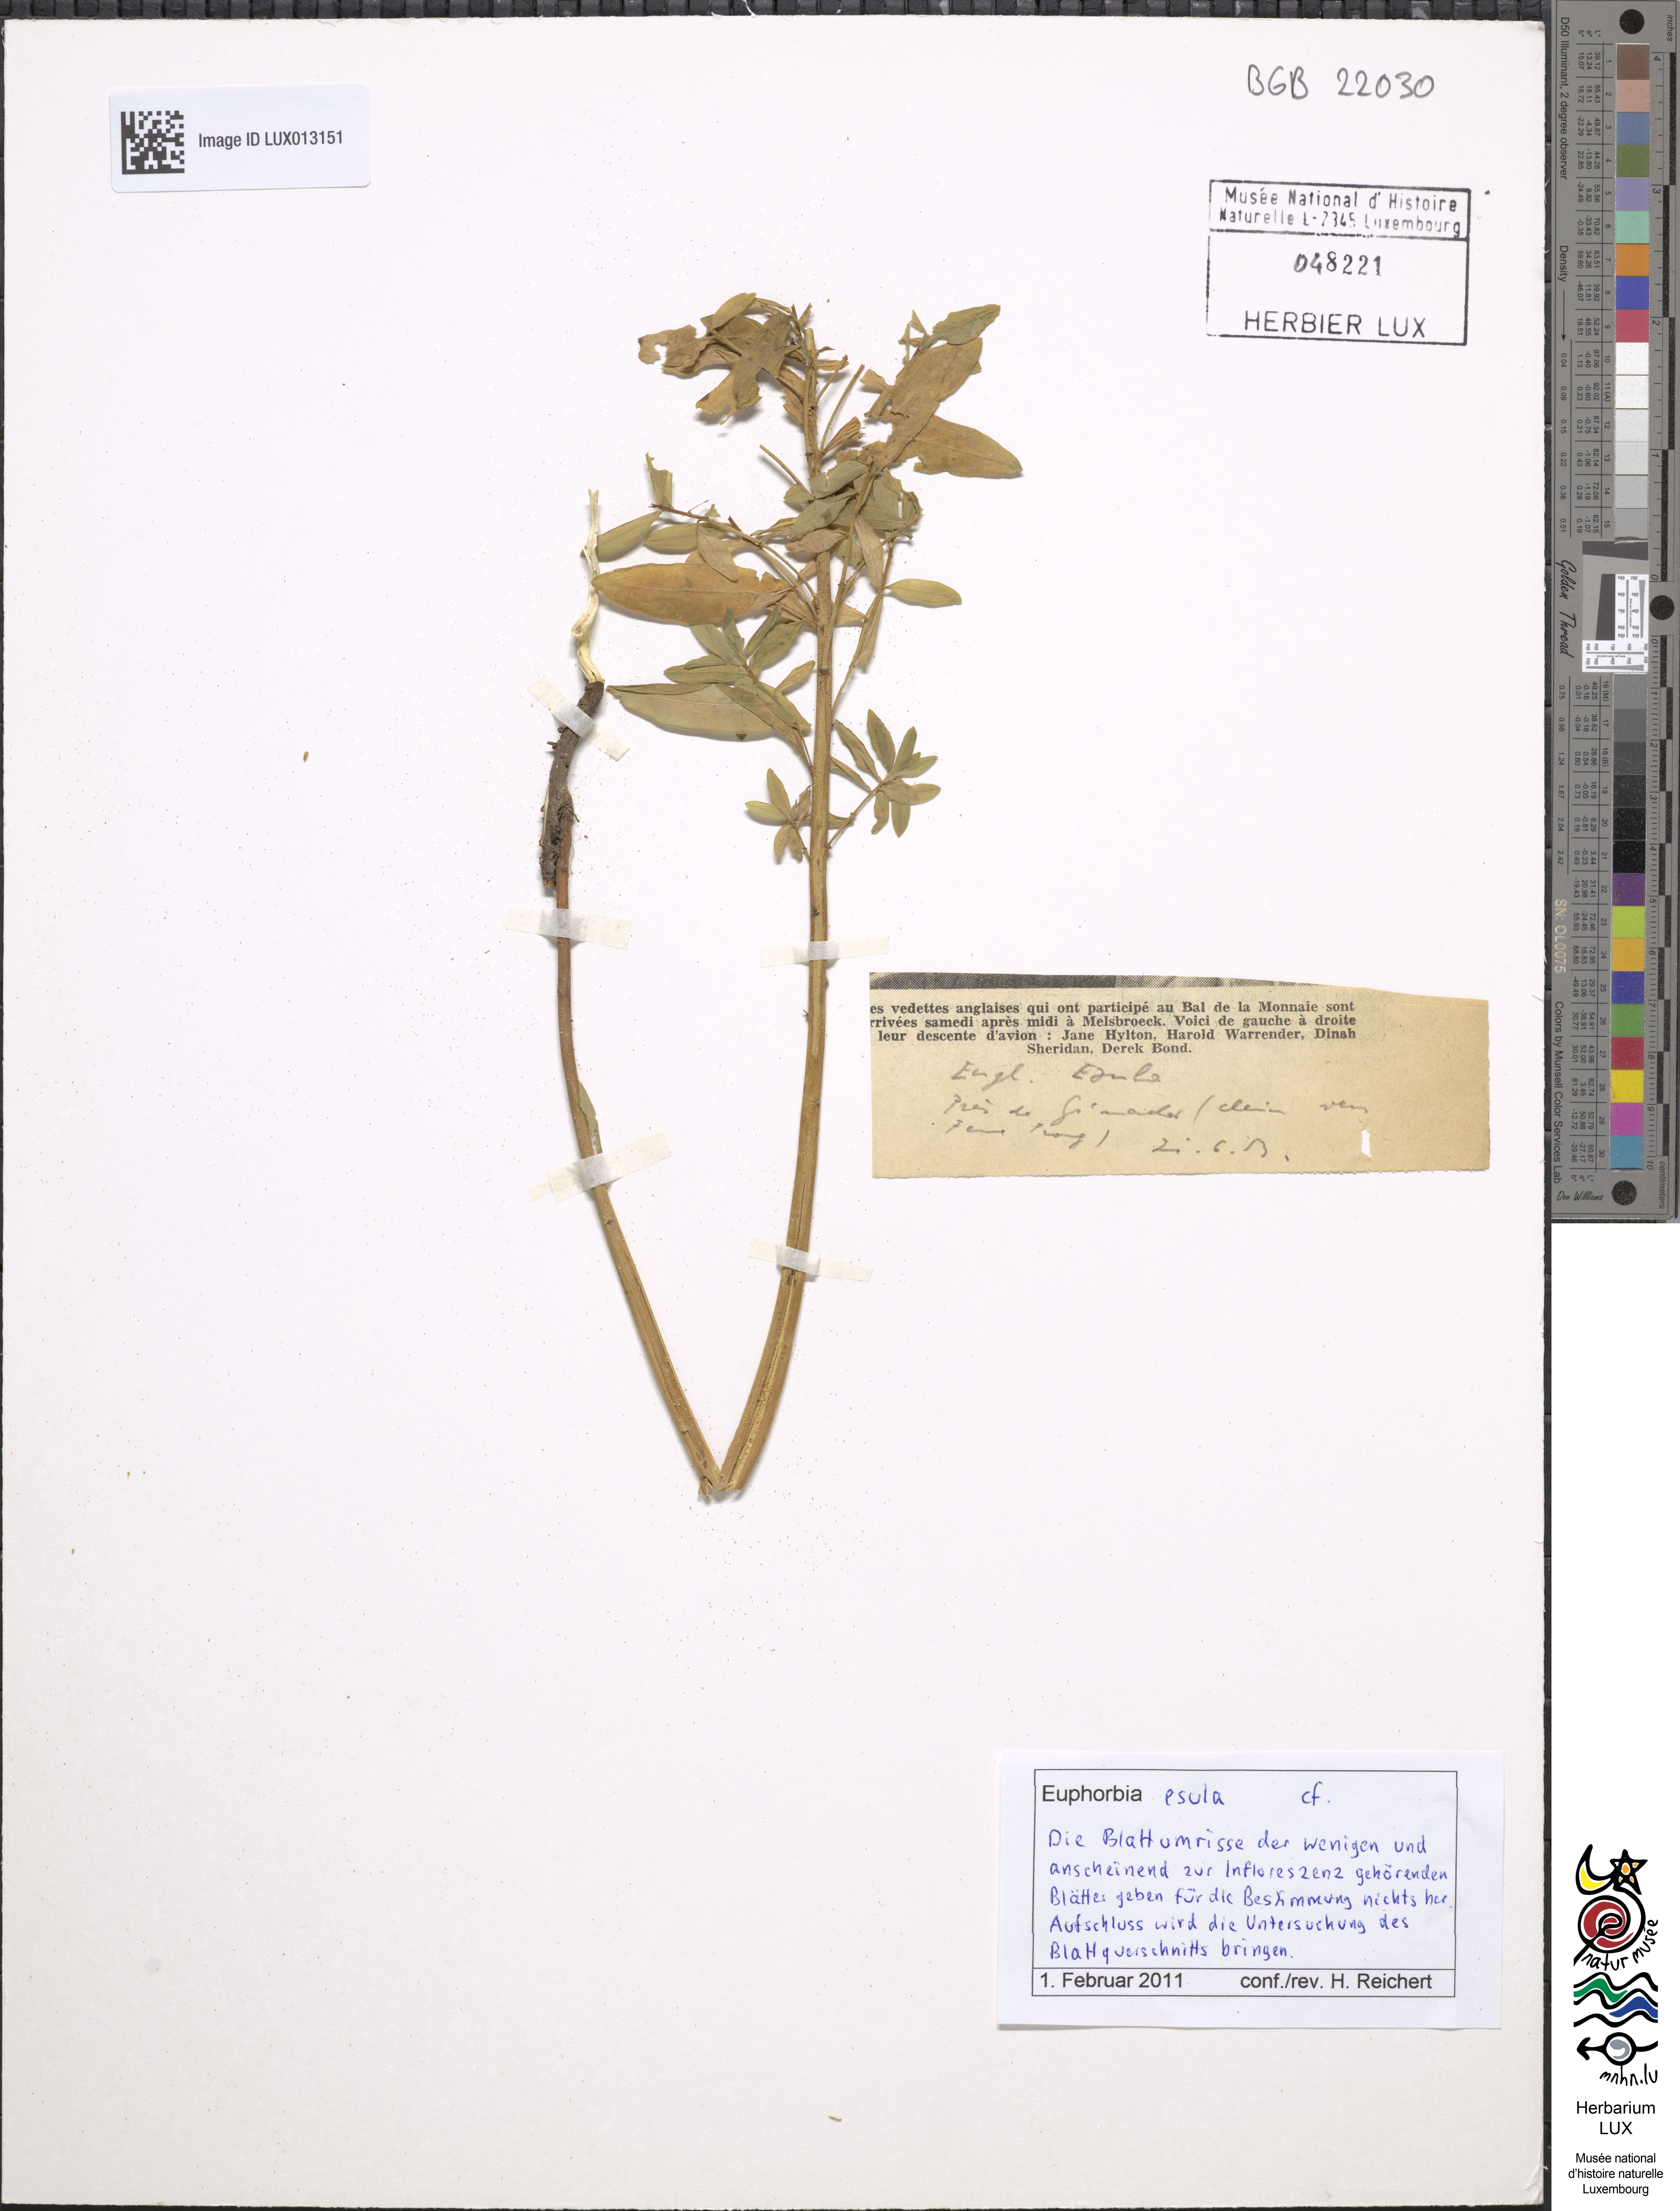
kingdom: Plantae
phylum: Tracheophyta
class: Magnoliopsida
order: Malpighiales
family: Euphorbiaceae
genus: Euphorbia
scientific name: Euphorbia esula
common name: Leafy spurge
